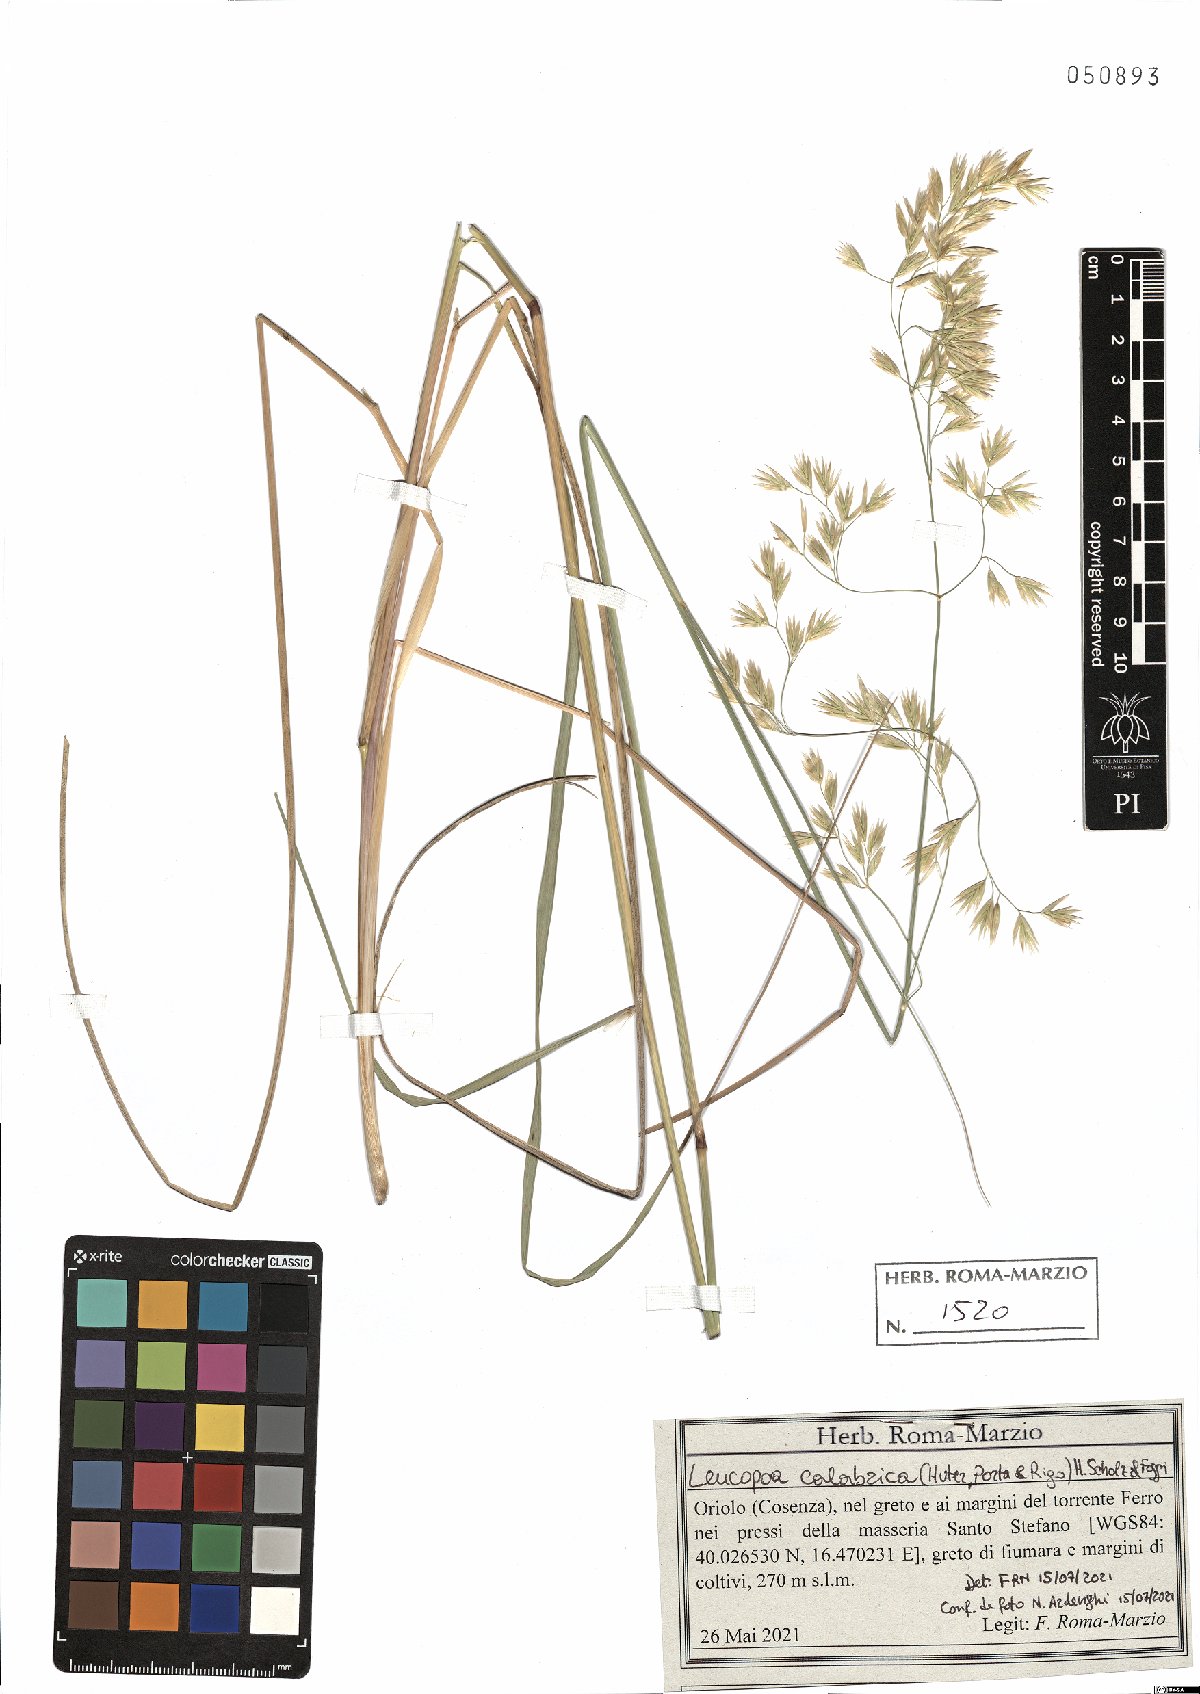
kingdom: Plantae
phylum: Tracheophyta
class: Liliopsida
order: Poales
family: Poaceae
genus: Festuca
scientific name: Festuca calabrica
